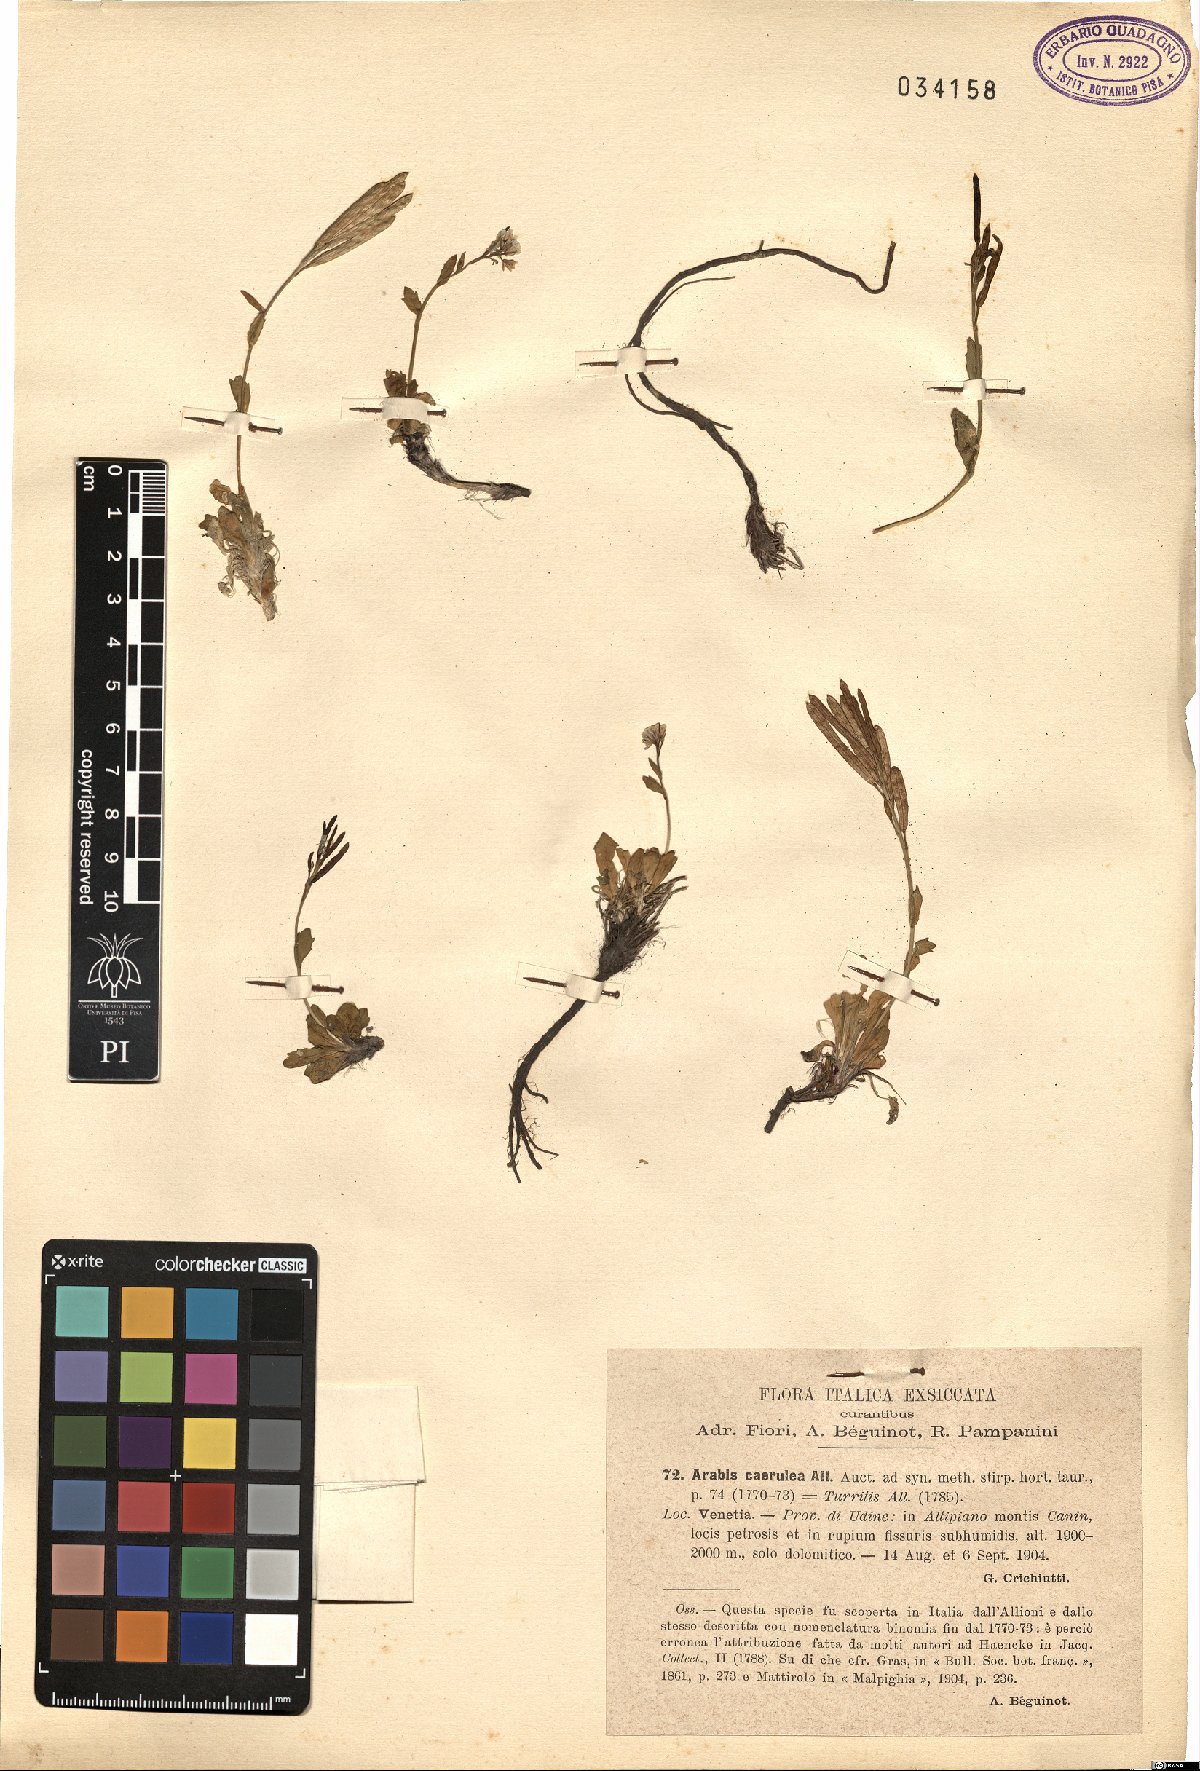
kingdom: Plantae
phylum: Tracheophyta
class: Magnoliopsida
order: Brassicales
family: Brassicaceae
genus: Arabis
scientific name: Arabis caerulea
